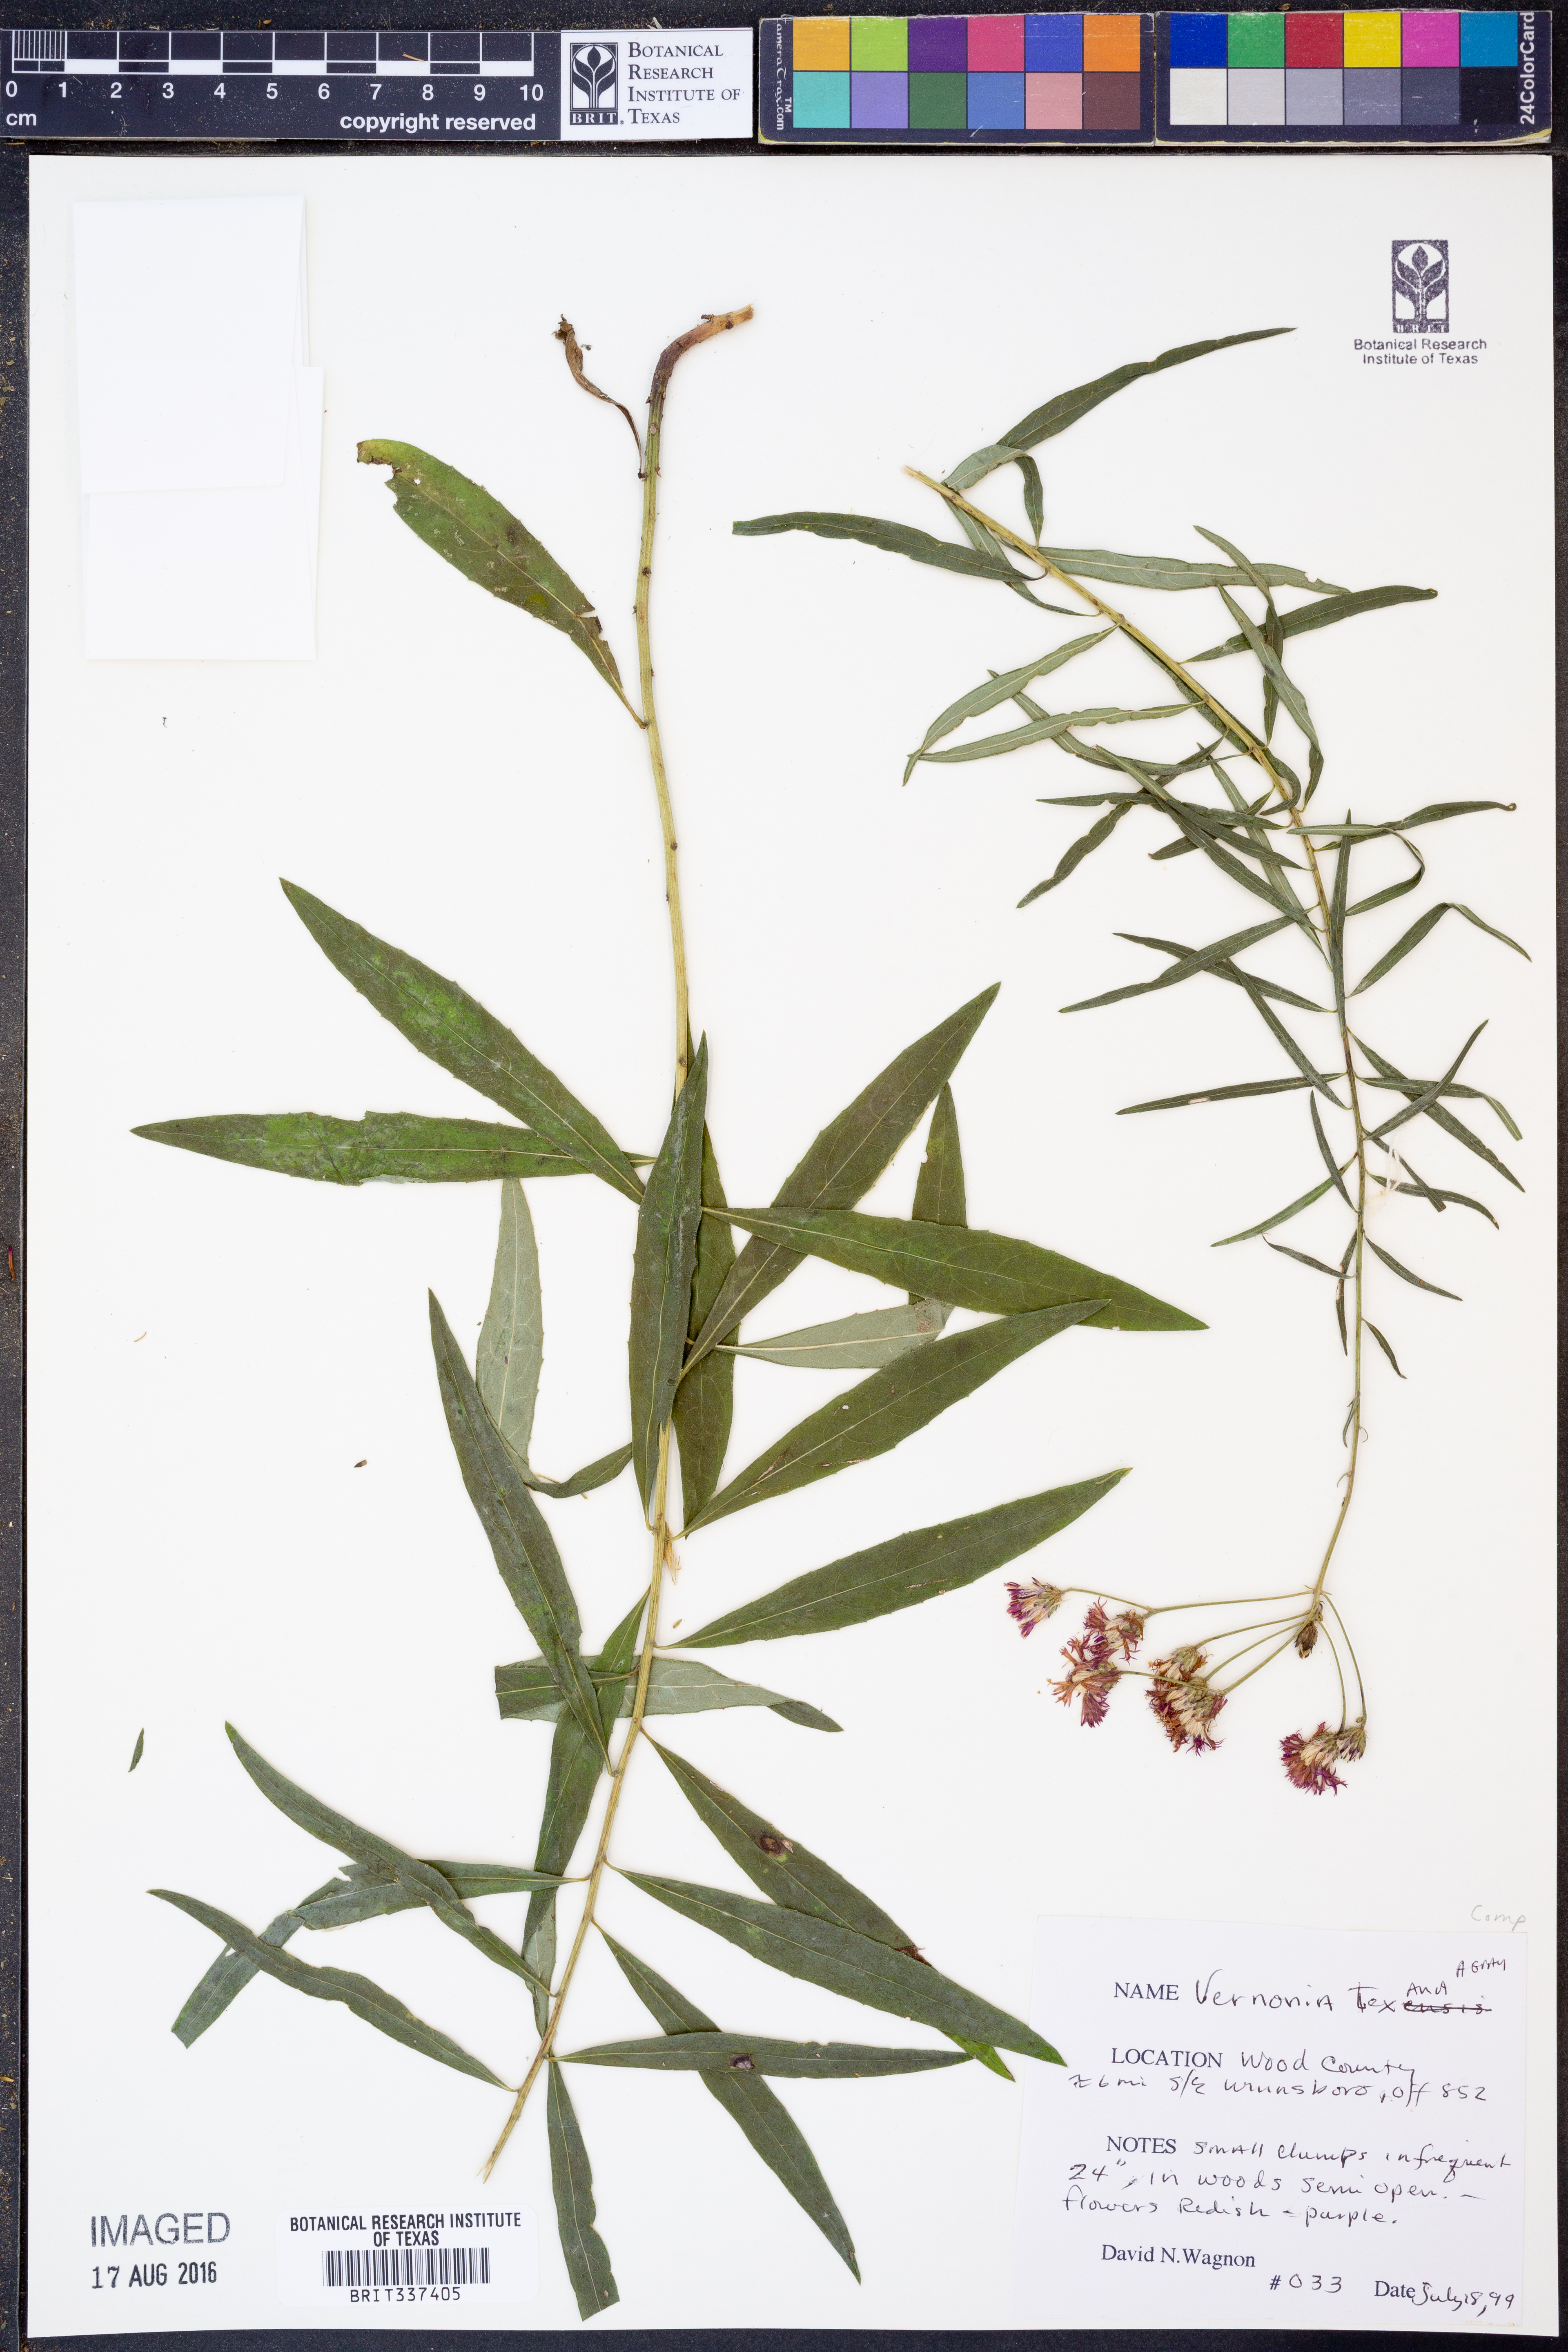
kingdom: Plantae
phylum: Tracheophyta
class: Magnoliopsida
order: Asterales
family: Asteraceae
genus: Vernonia
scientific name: Vernonia texana
